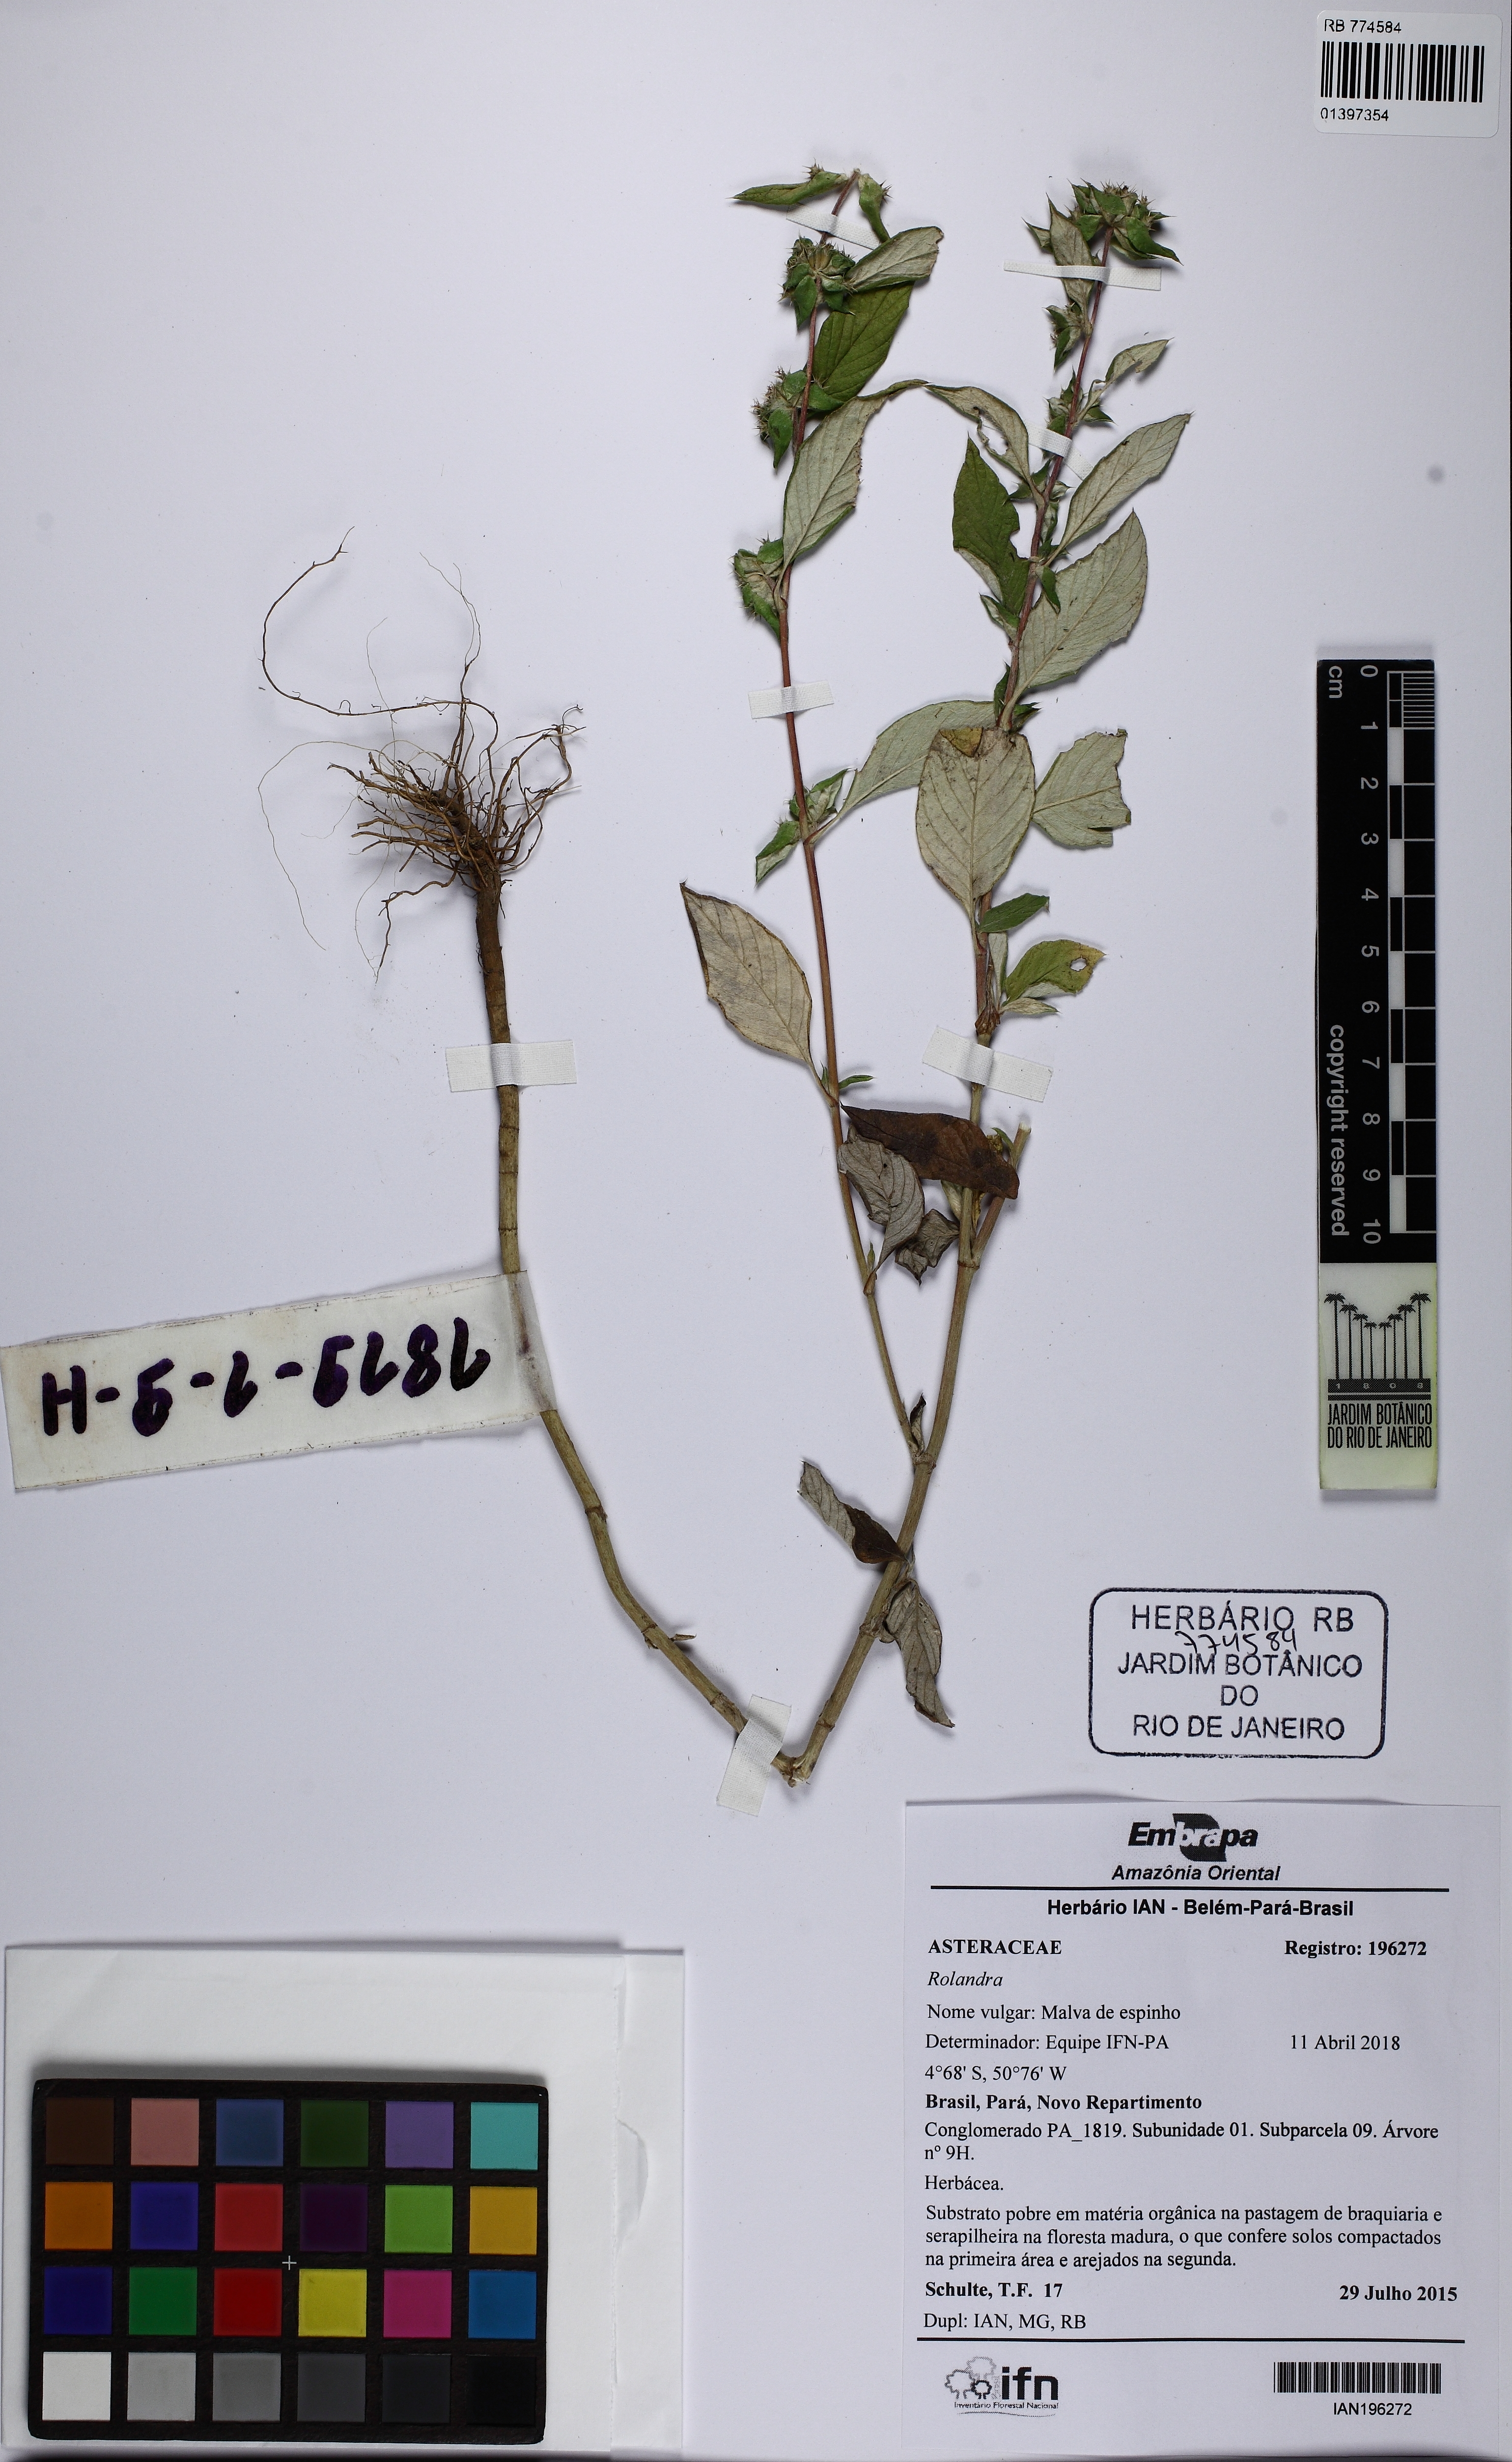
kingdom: Plantae
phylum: Tracheophyta
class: Magnoliopsida
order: Asterales
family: Asteraceae
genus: Rolandra
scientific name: Rolandra
